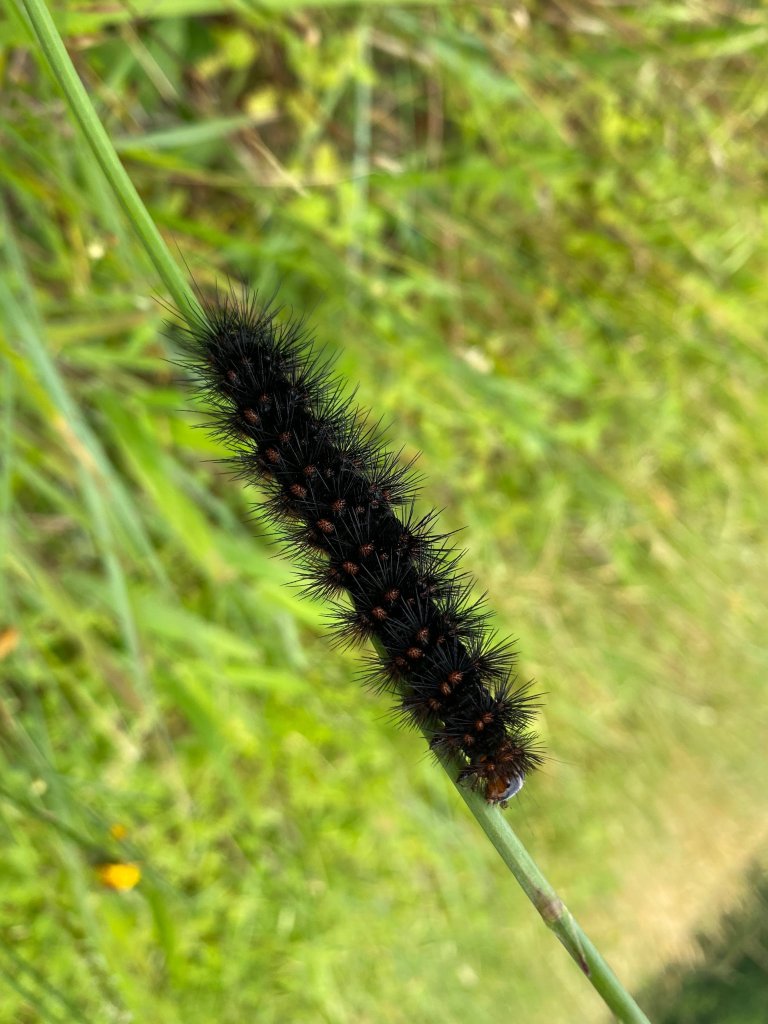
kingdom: Animalia
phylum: Arthropoda
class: Insecta
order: Lepidoptera
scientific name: Lepidoptera
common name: Butterflies
